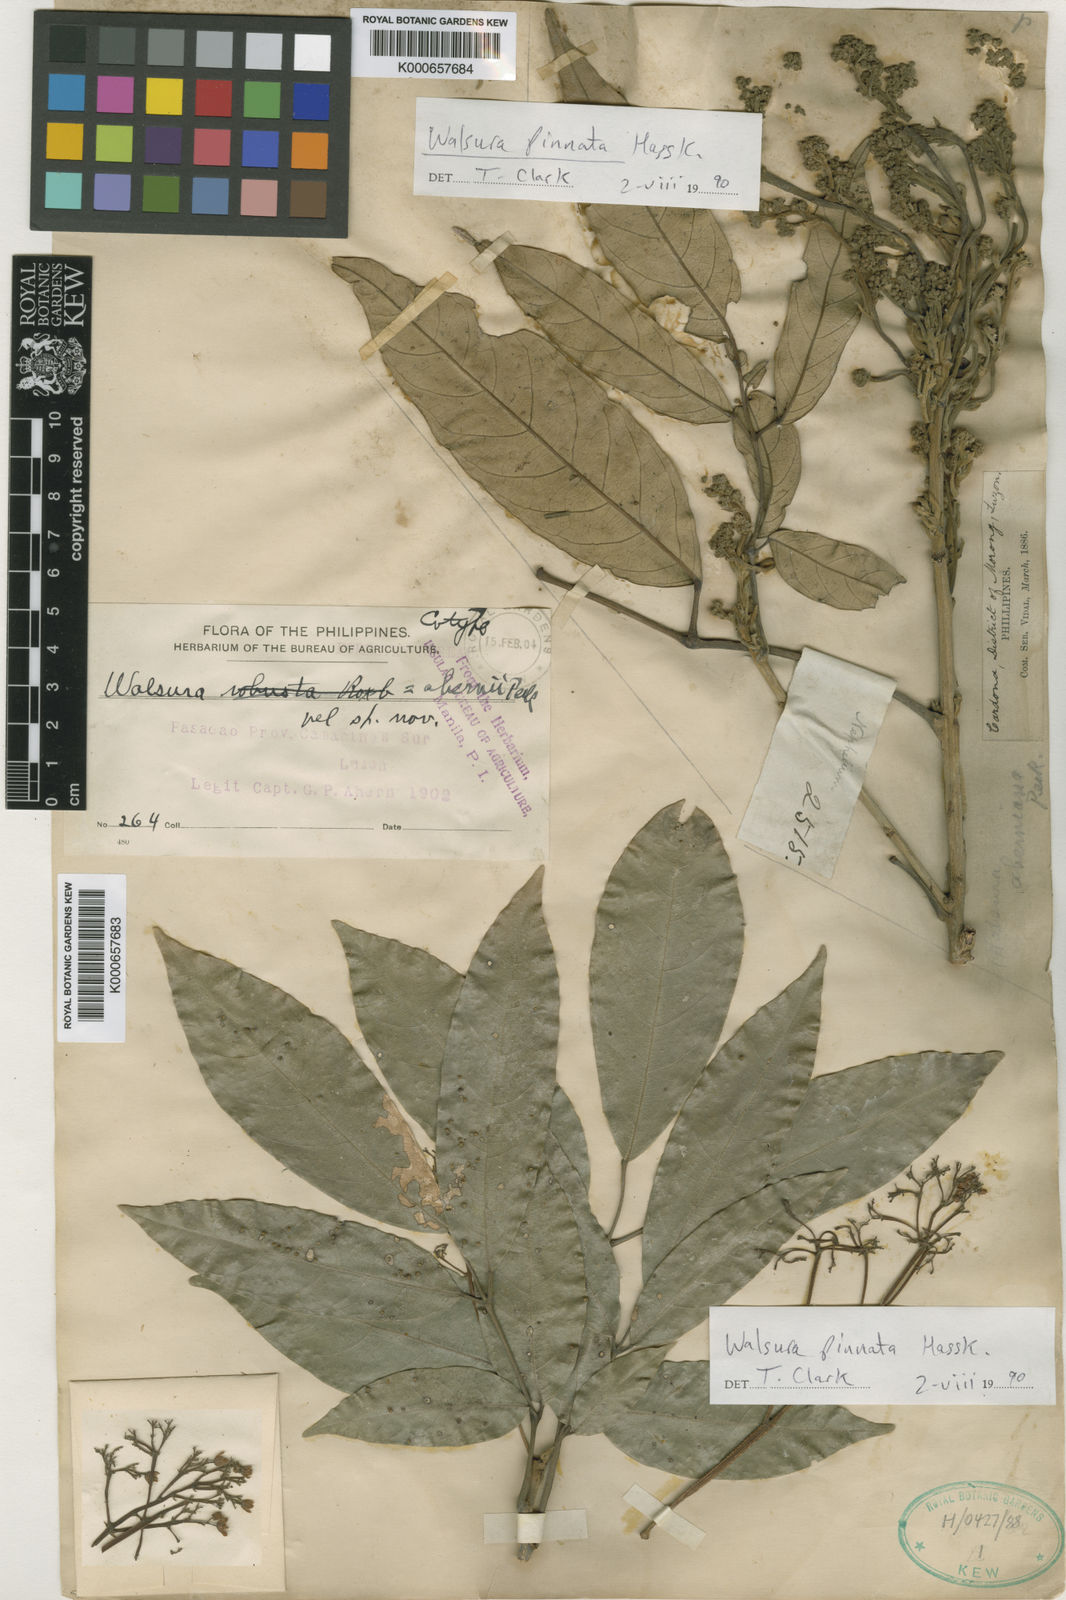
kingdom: Plantae
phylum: Tracheophyta
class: Magnoliopsida
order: Sapindales
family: Meliaceae
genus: Walsura
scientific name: Walsura pinnata
